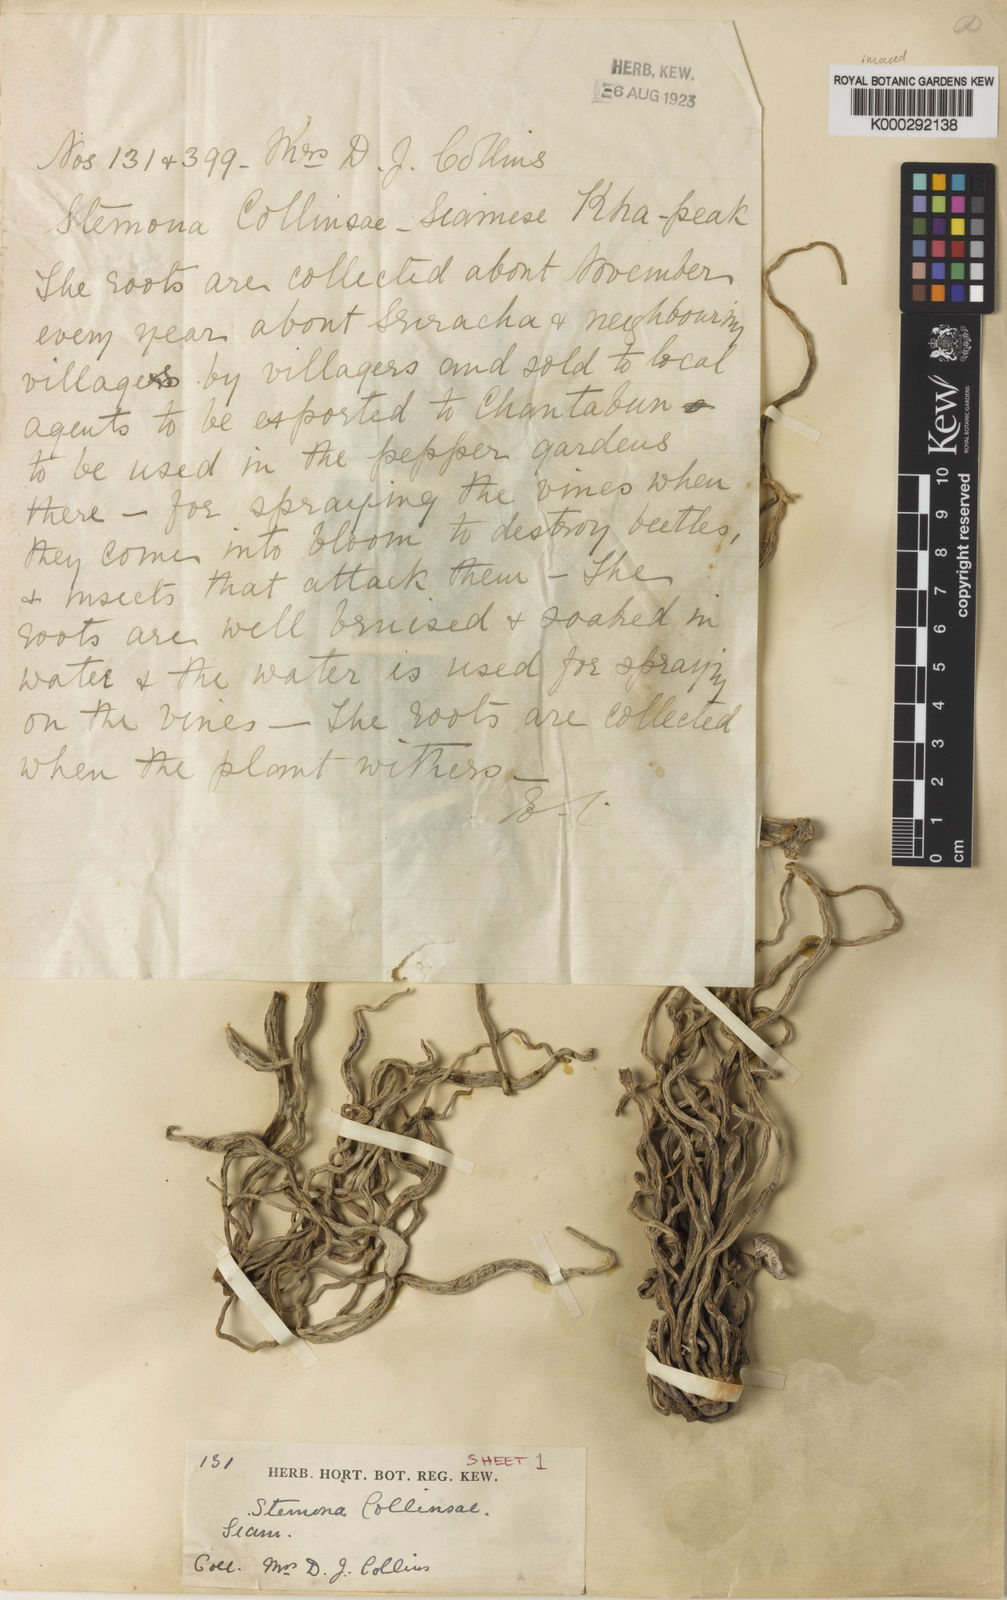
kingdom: Plantae
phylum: Tracheophyta
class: Liliopsida
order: Pandanales
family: Stemonaceae
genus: Stemona
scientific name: Stemona collinsiae
